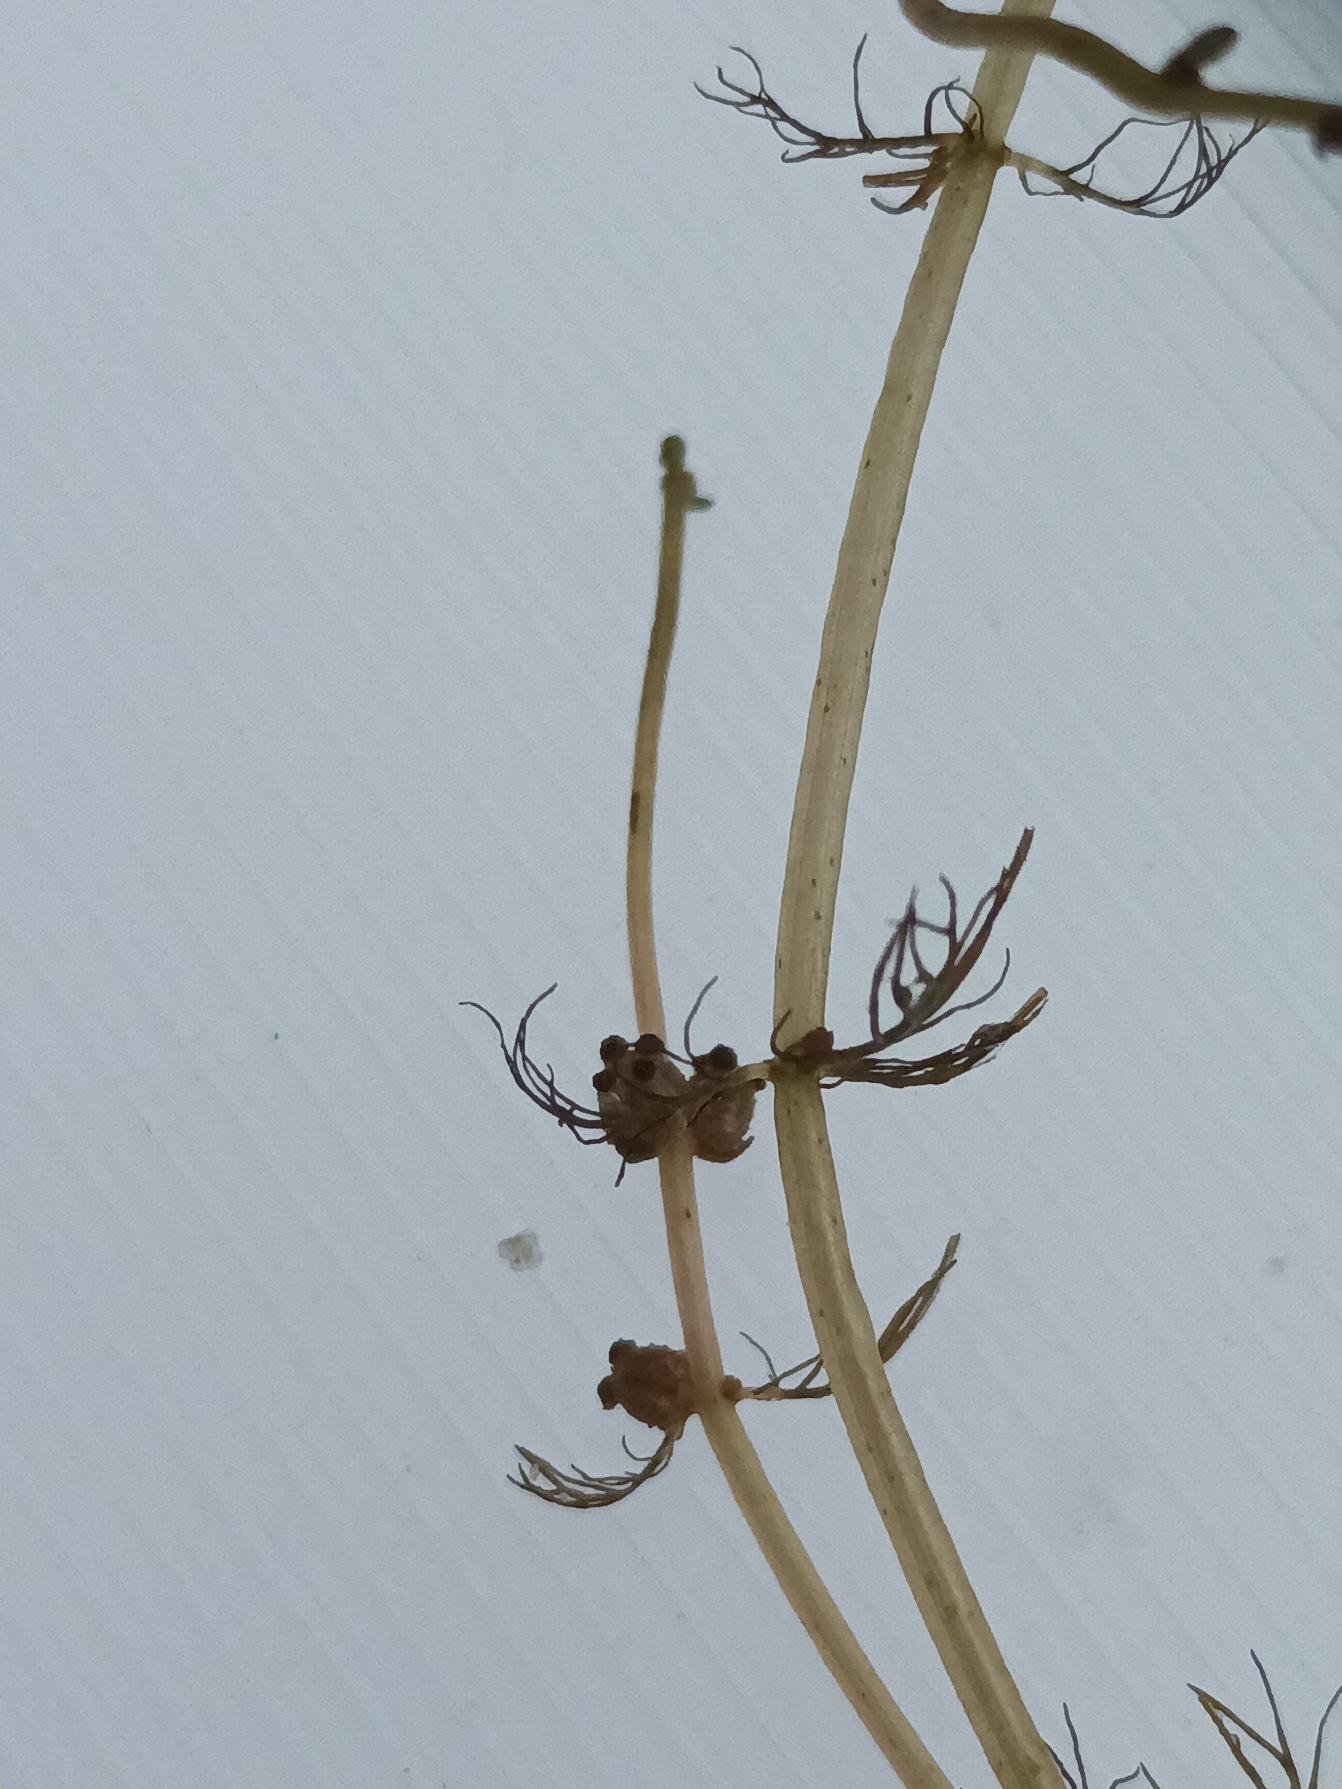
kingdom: Plantae
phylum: Tracheophyta
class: Magnoliopsida
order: Saxifragales
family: Haloragaceae
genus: Myriophyllum
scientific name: Myriophyllum alterniflorum
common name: Hår-tusindblad
